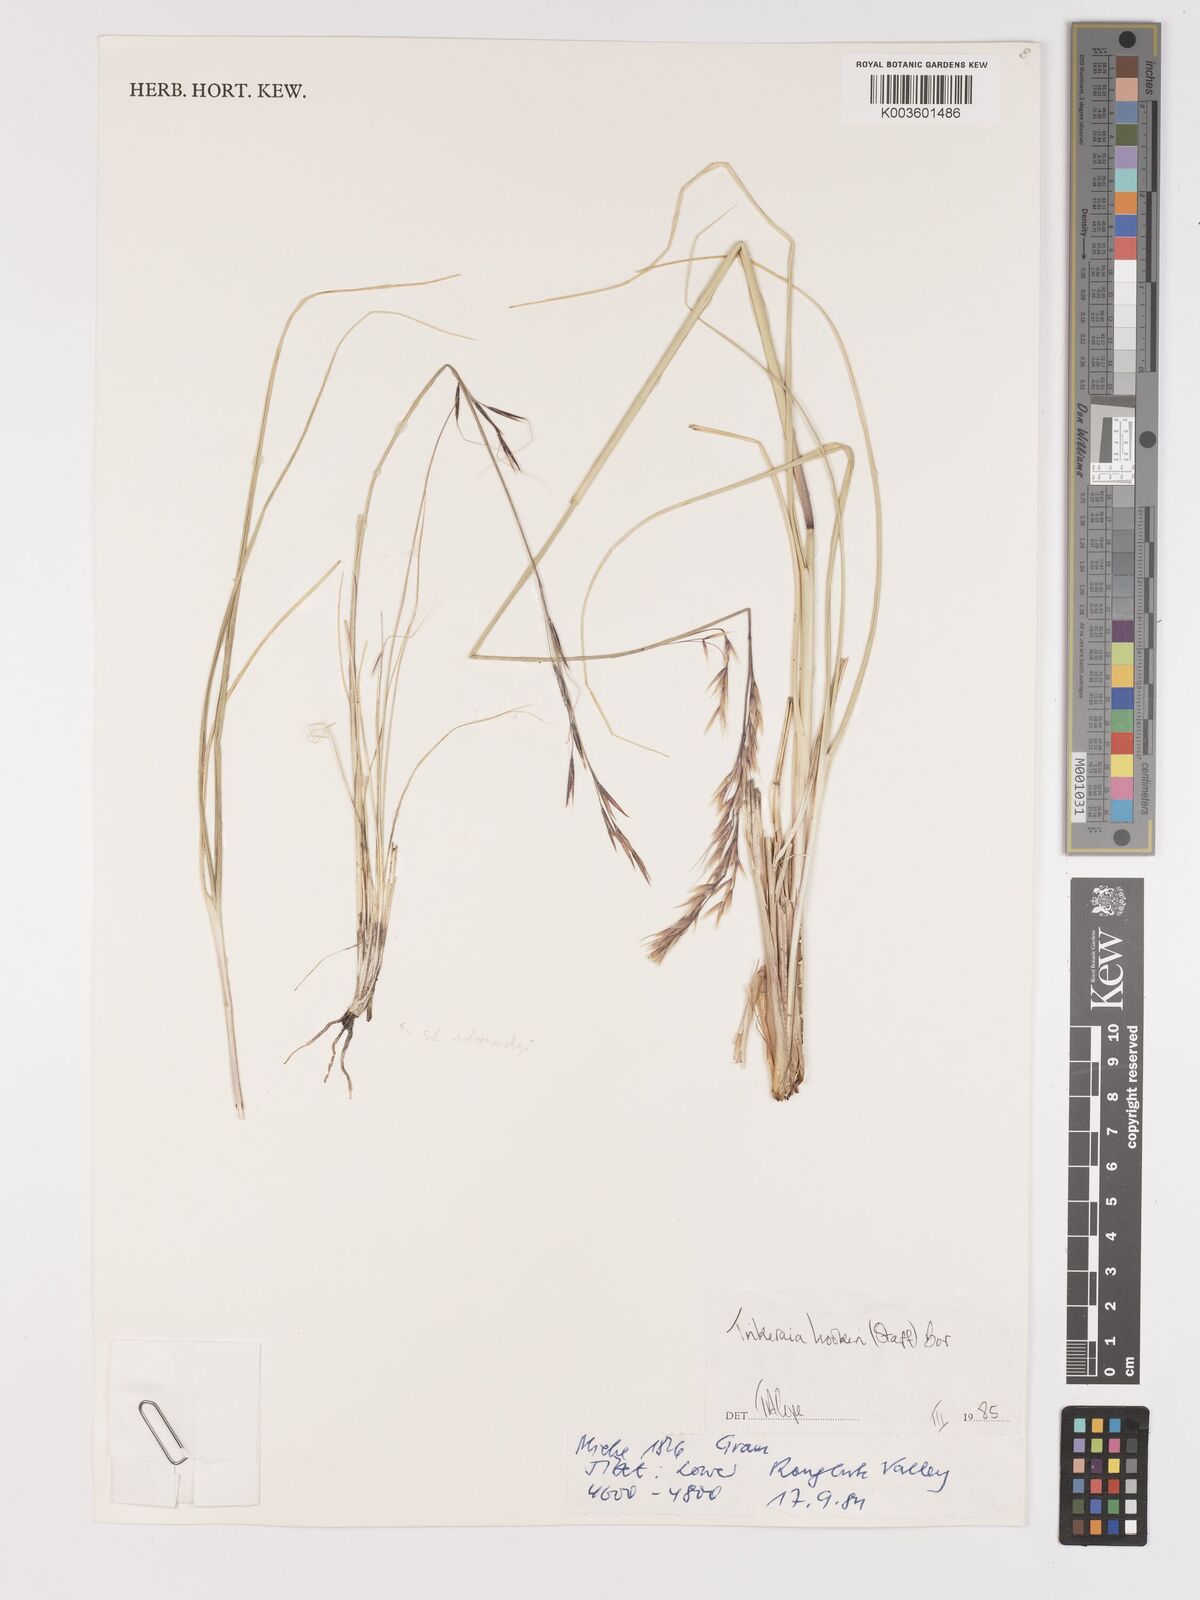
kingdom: Plantae
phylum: Tracheophyta
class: Liliopsida
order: Poales
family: Poaceae
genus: Trikeraia
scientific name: Trikeraia hookeri
